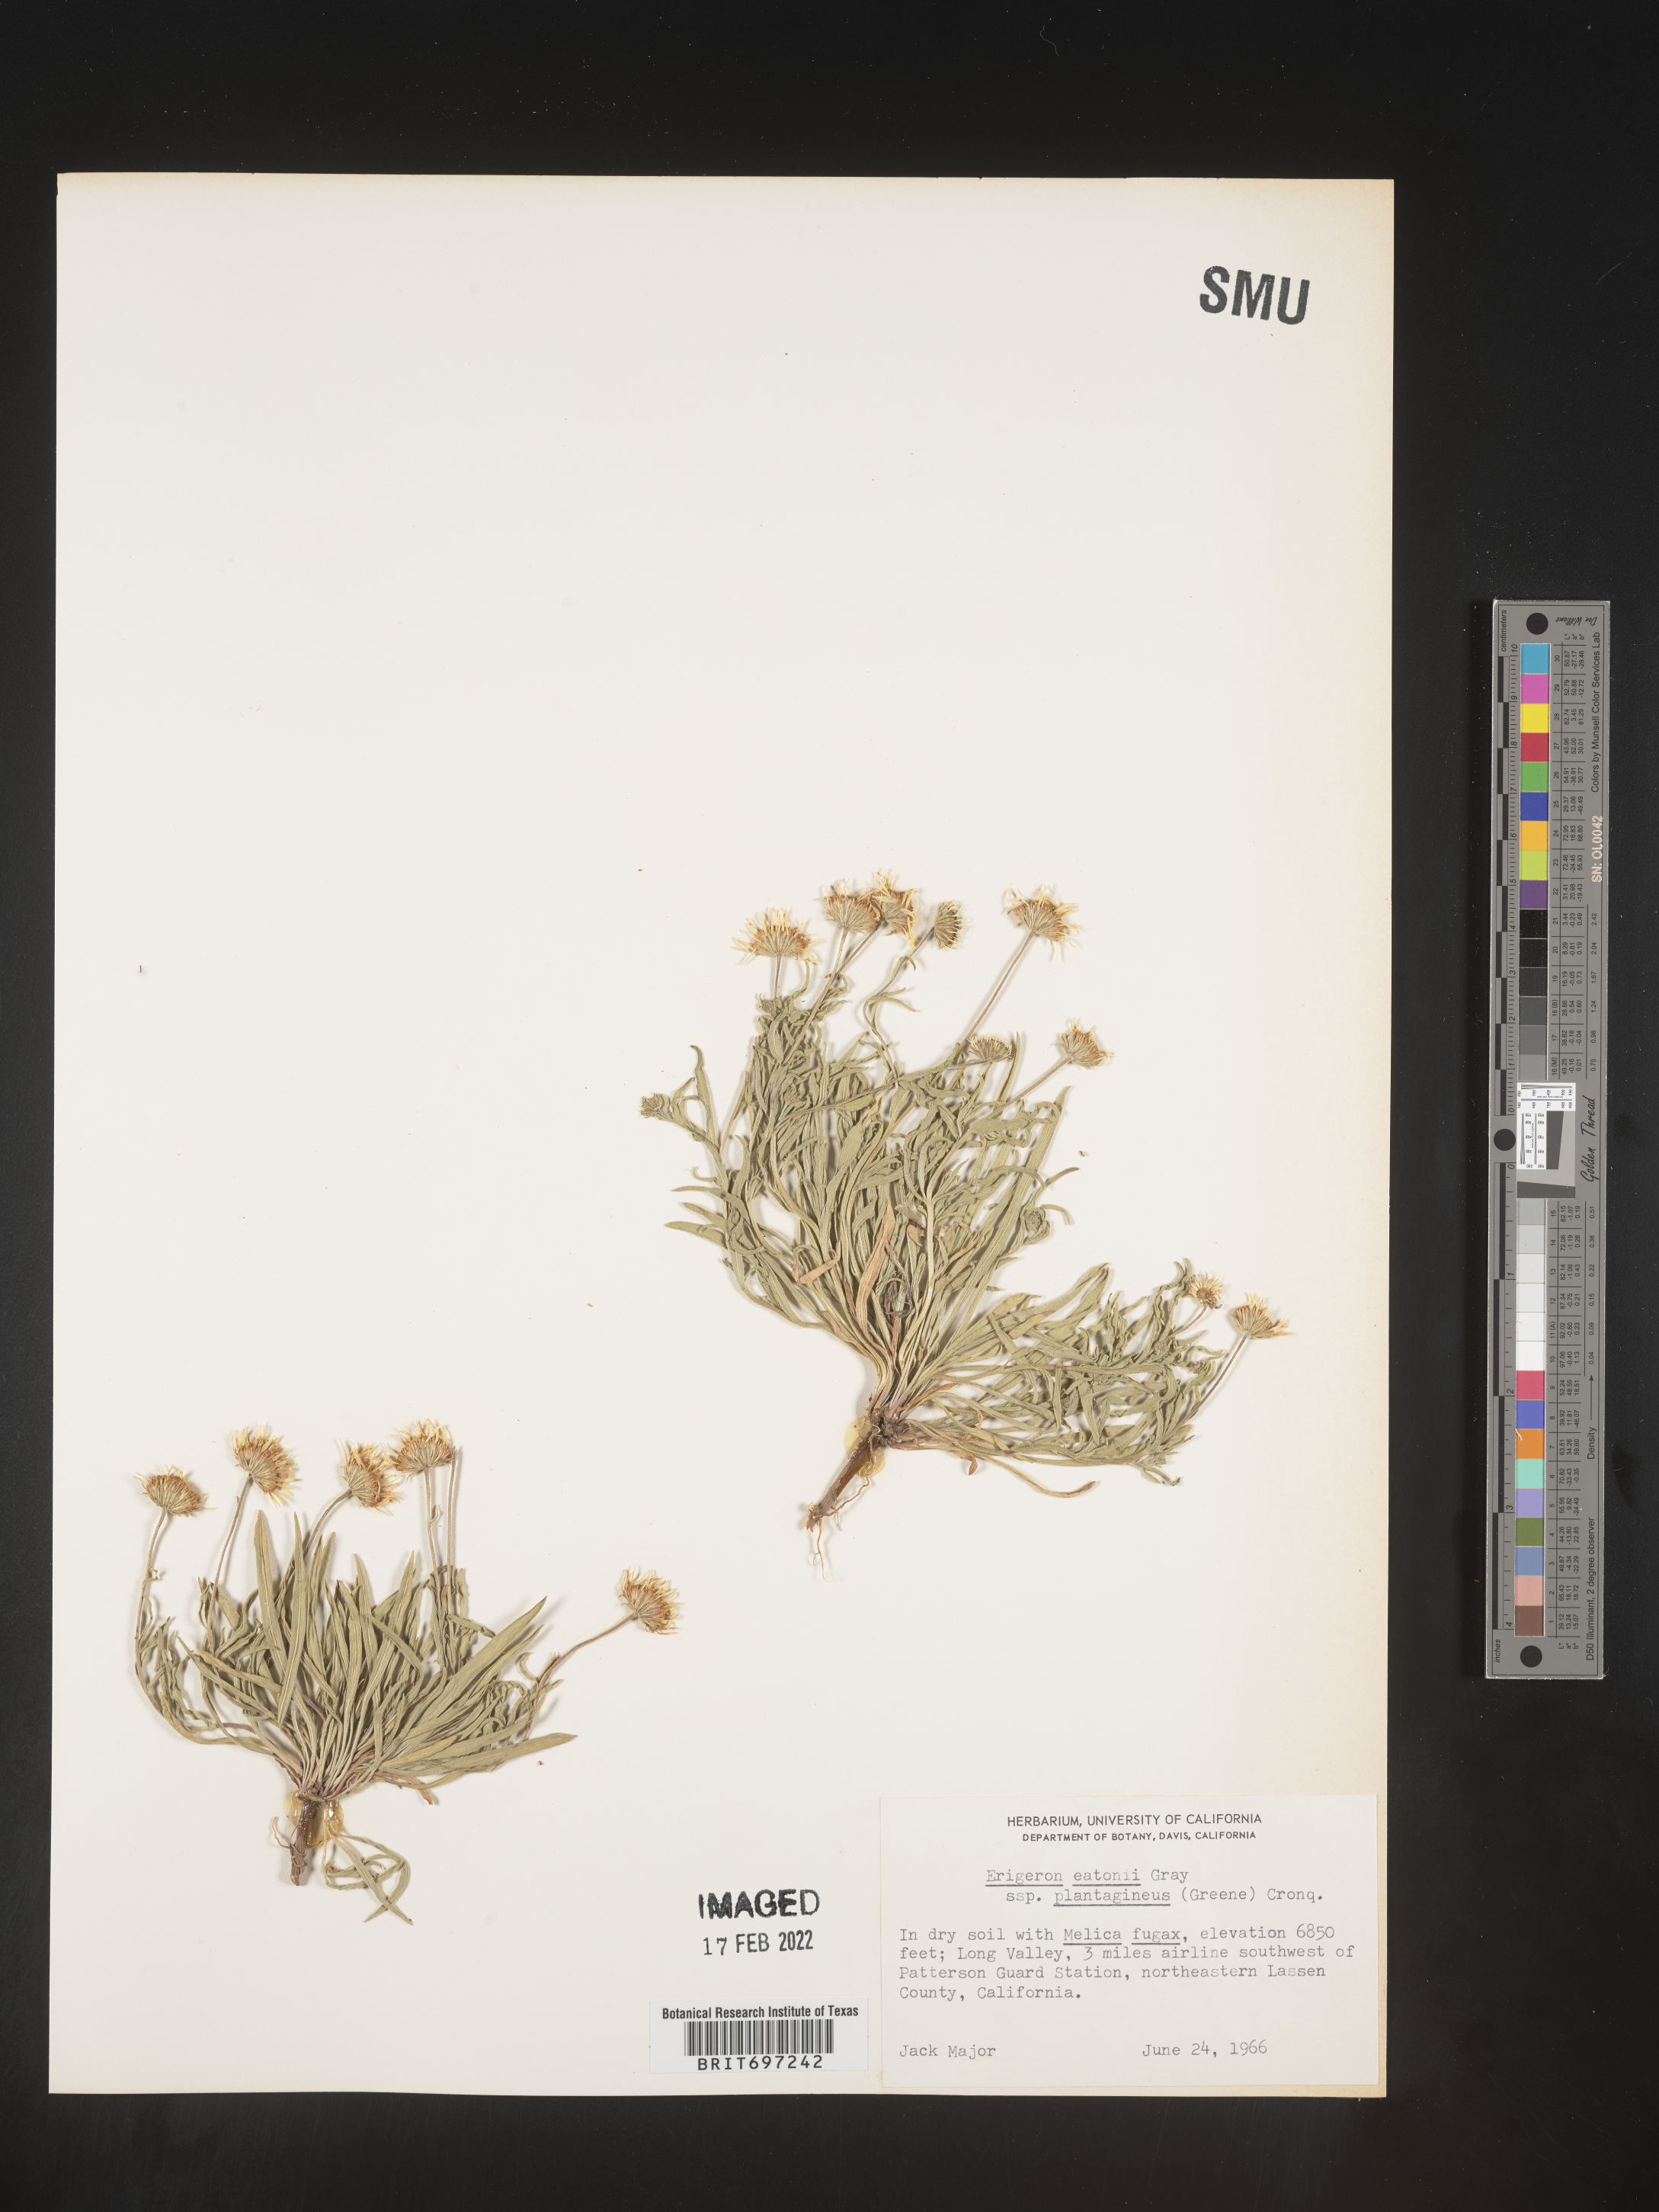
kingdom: Plantae
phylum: Tracheophyta
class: Magnoliopsida
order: Asterales
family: Asteraceae
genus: Erigeron
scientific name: Erigeron eatonii
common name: Eaton's fleabane
